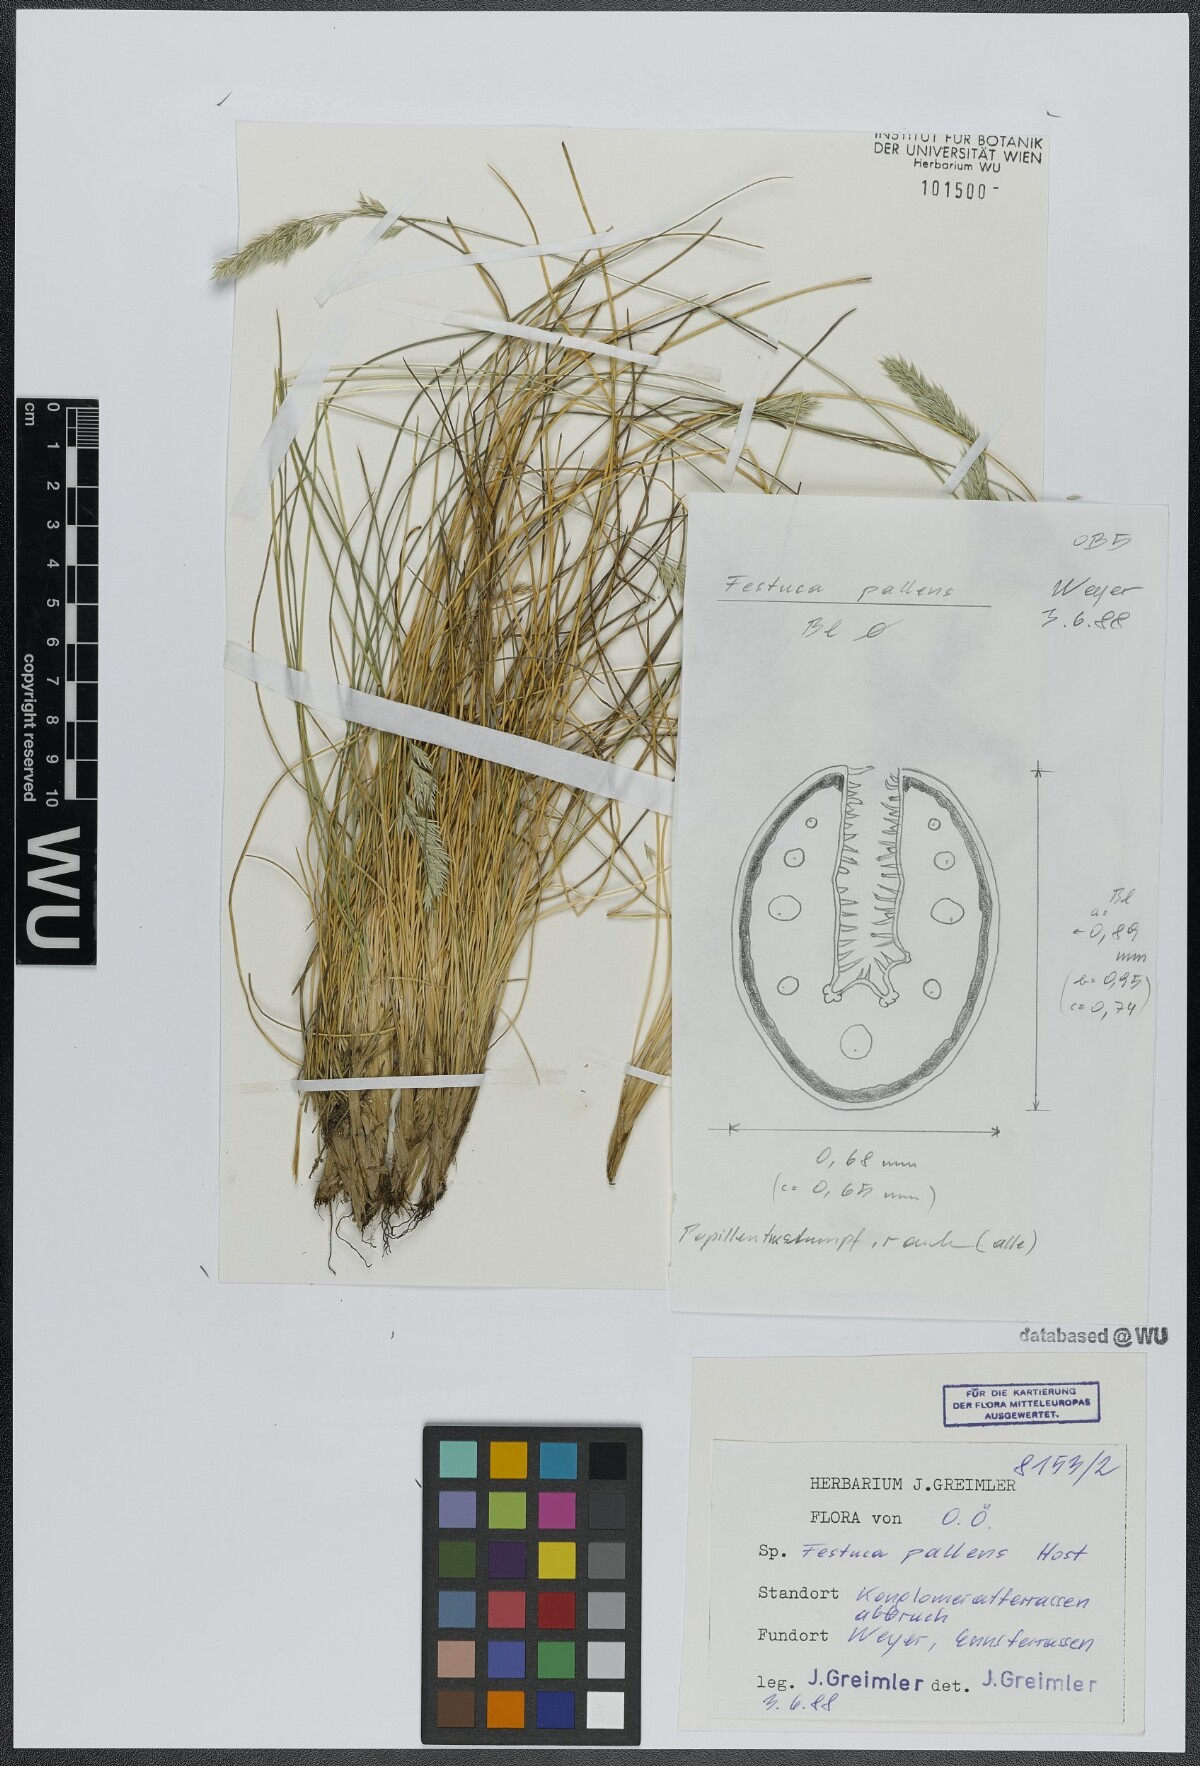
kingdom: Plantae
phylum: Tracheophyta
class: Liliopsida
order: Poales
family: Poaceae
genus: Festuca
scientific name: Festuca pallens
